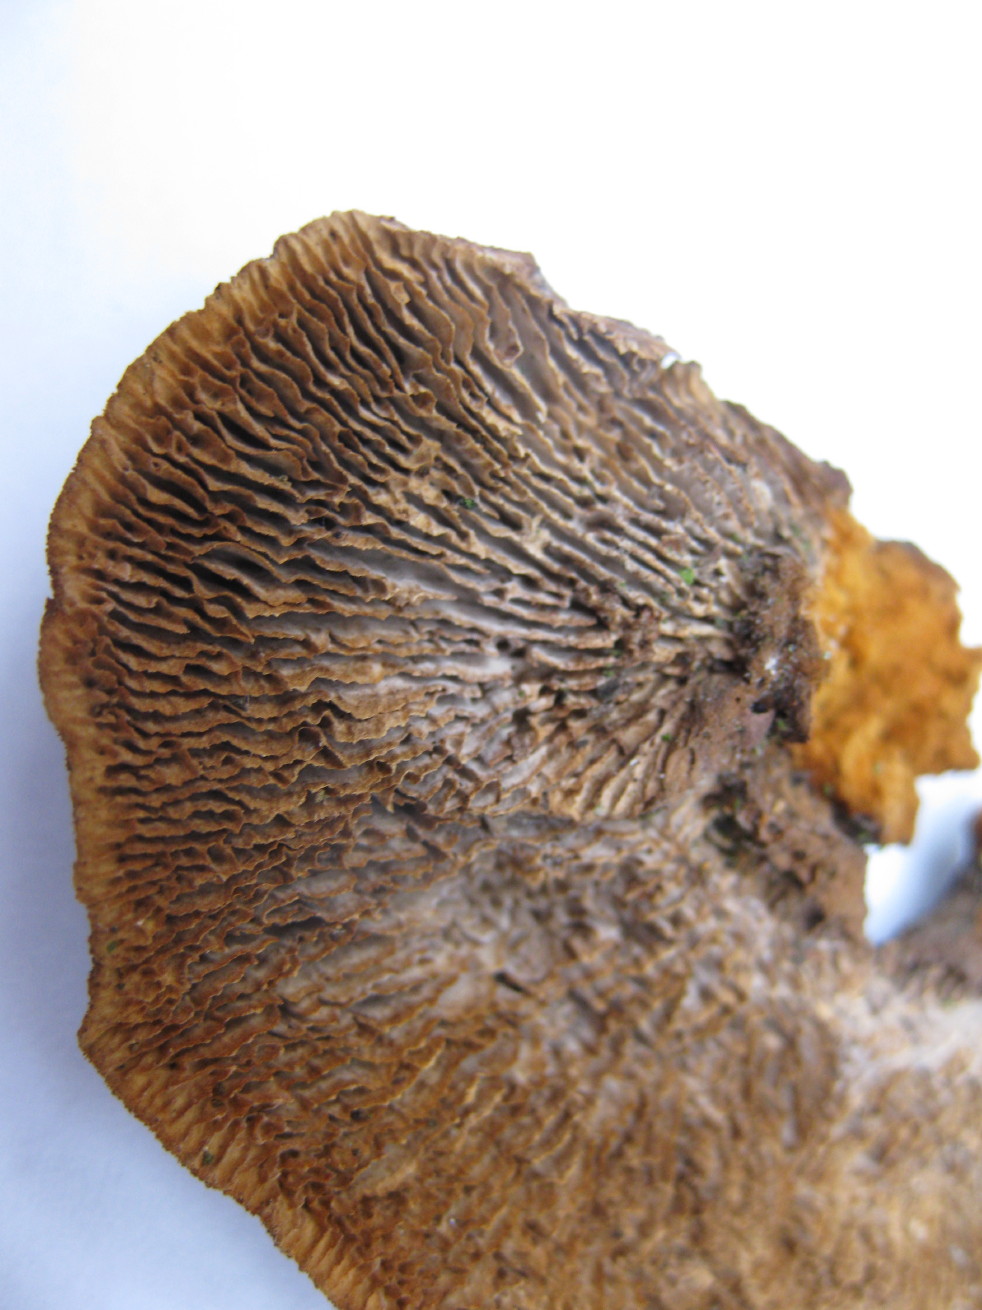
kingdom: Fungi
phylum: Basidiomycota
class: Agaricomycetes
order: Gloeophyllales
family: Gloeophyllaceae
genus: Gloeophyllum
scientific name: Gloeophyllum sepiarium
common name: fyrre-korkhat
